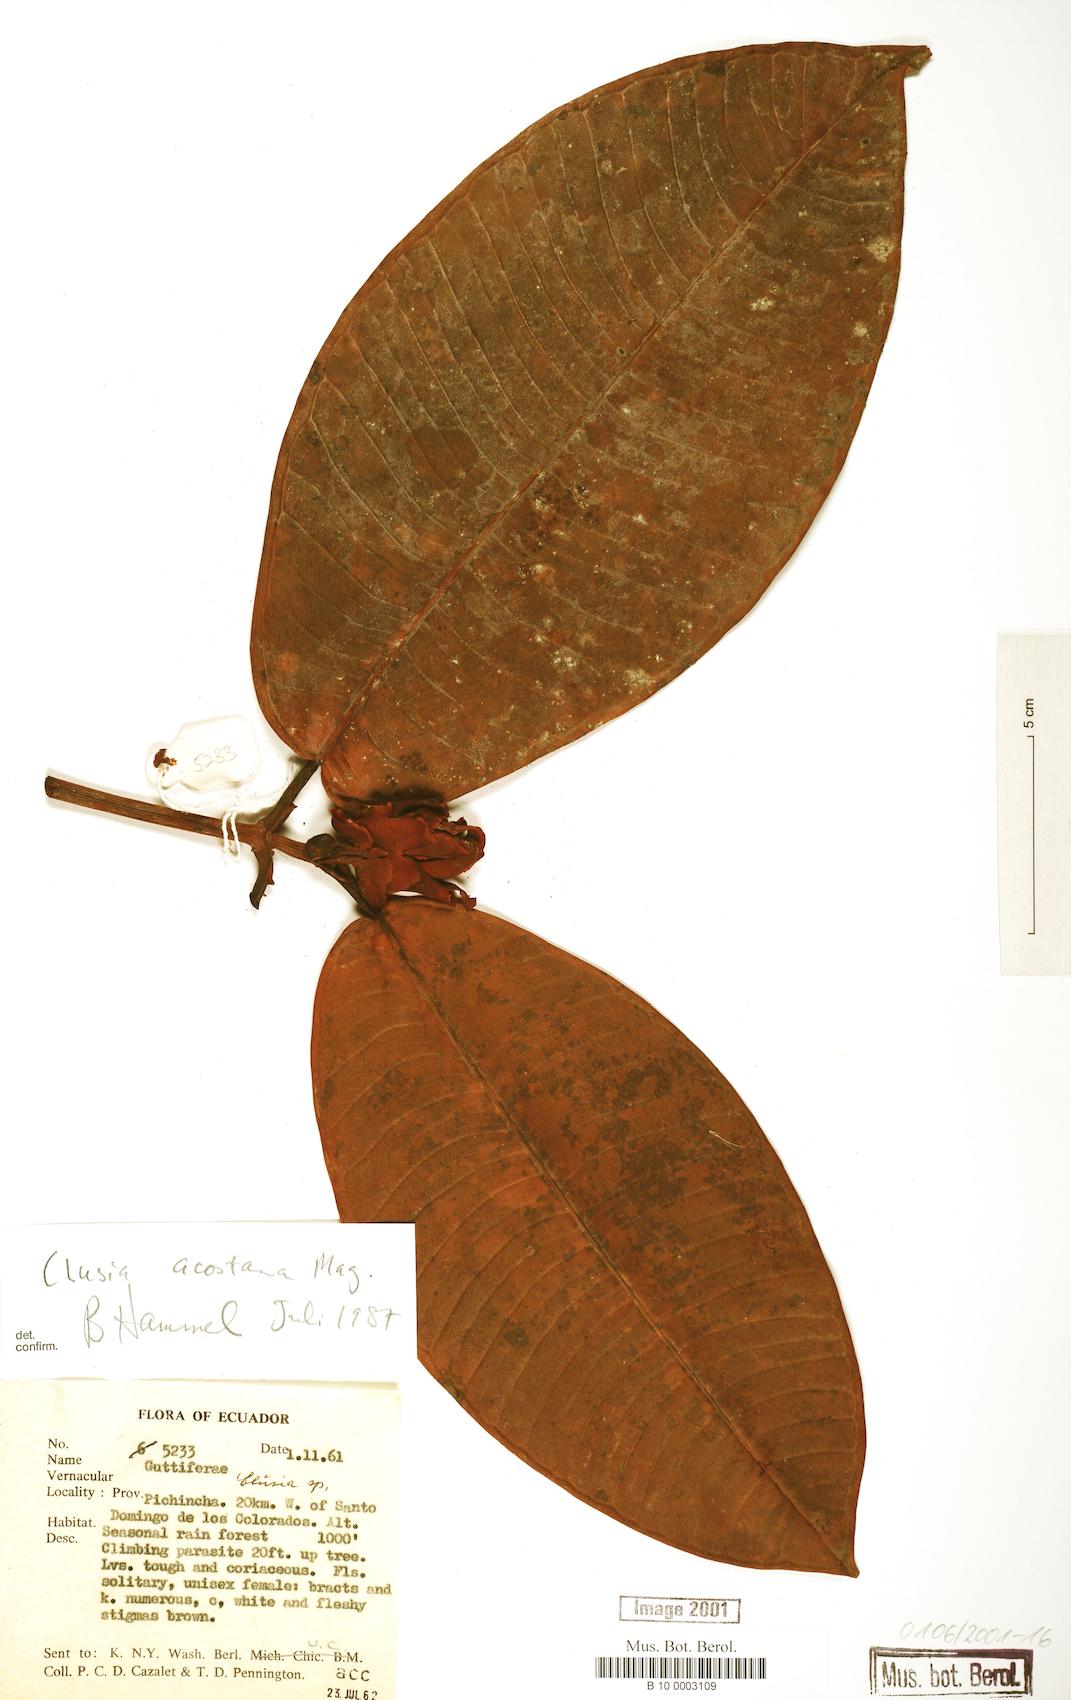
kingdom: Plantae
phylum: Tracheophyta
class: Magnoliopsida
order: Malpighiales
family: Clusiaceae
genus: Clusia
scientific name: Clusia acostana
